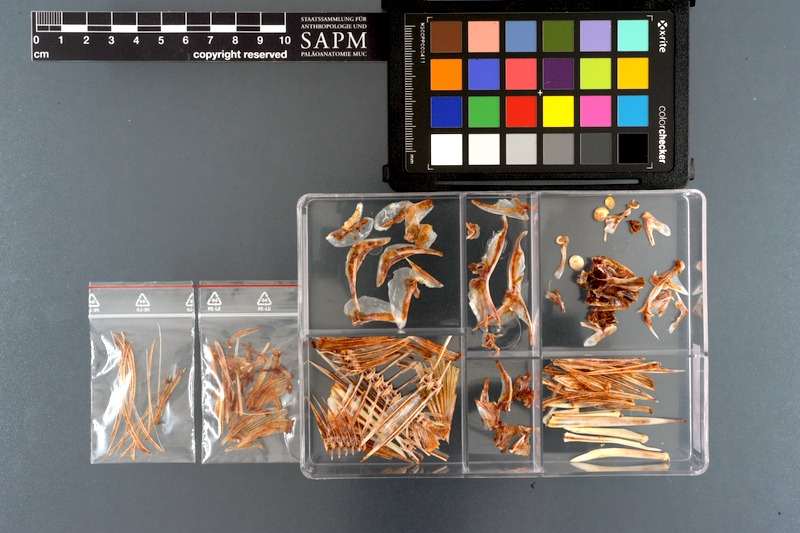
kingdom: Animalia
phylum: Chordata
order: Perciformes
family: Acanthuridae
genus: Naso
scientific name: Naso unicornis
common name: Bluespine unicornfish
